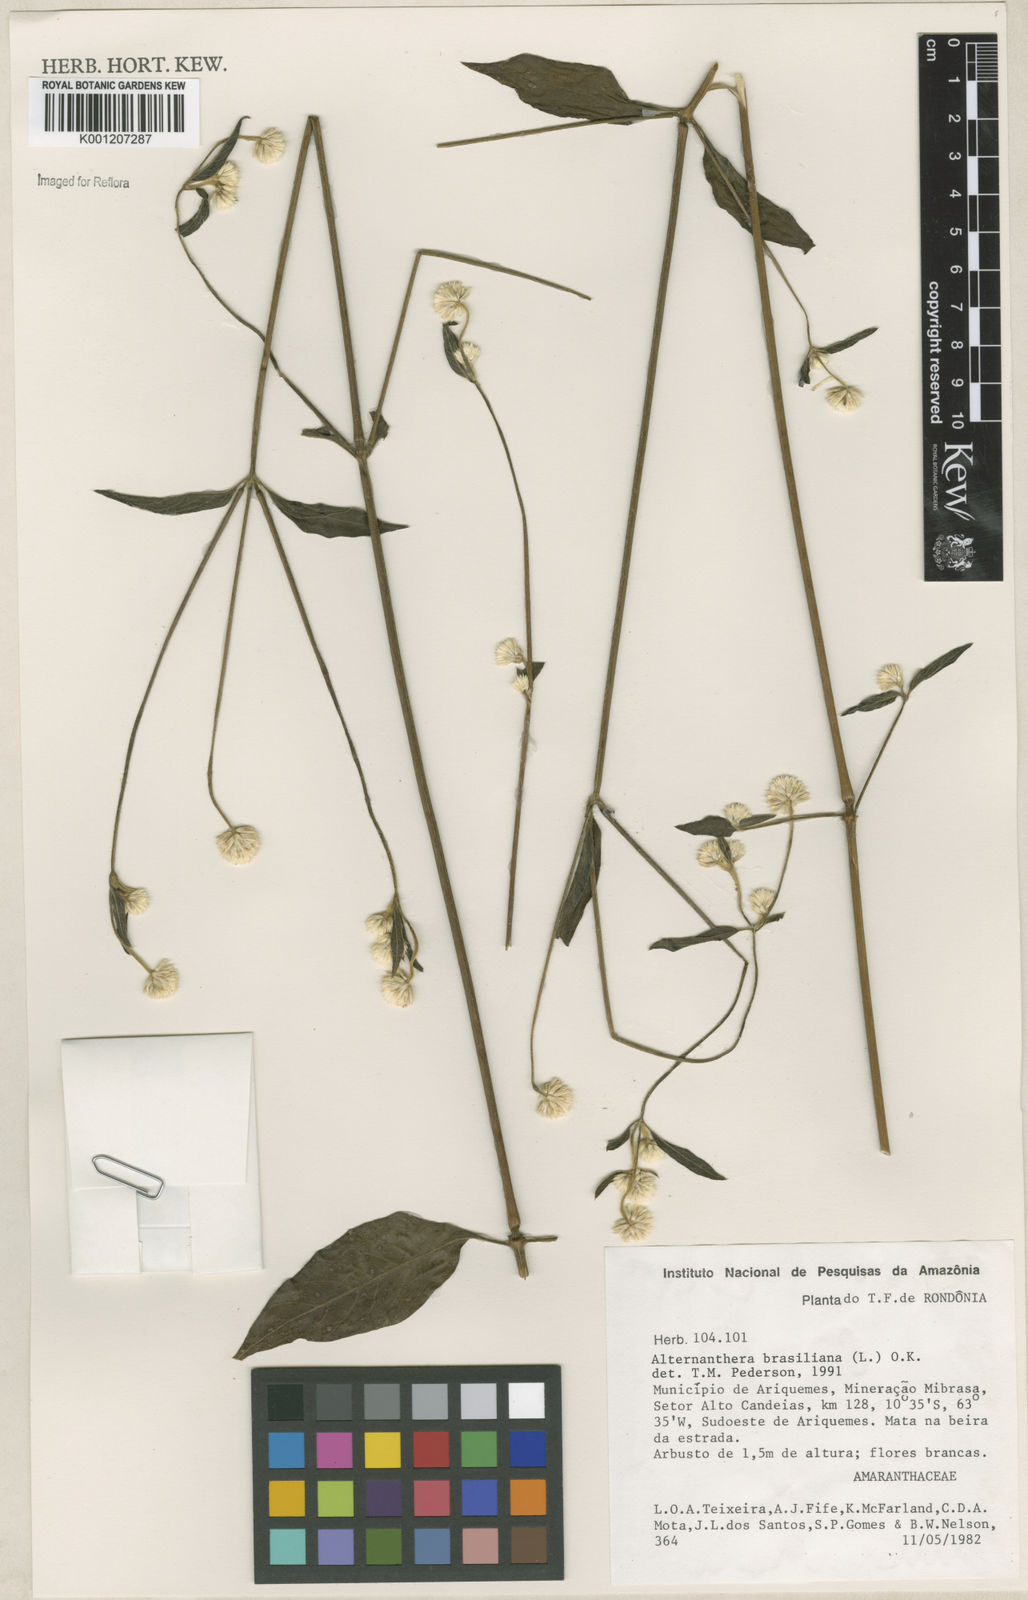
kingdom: Plantae
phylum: Tracheophyta
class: Magnoliopsida
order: Caryophyllales
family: Amaranthaceae
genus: Alternanthera
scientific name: Alternanthera brasiliana
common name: Brazilian joyweed
